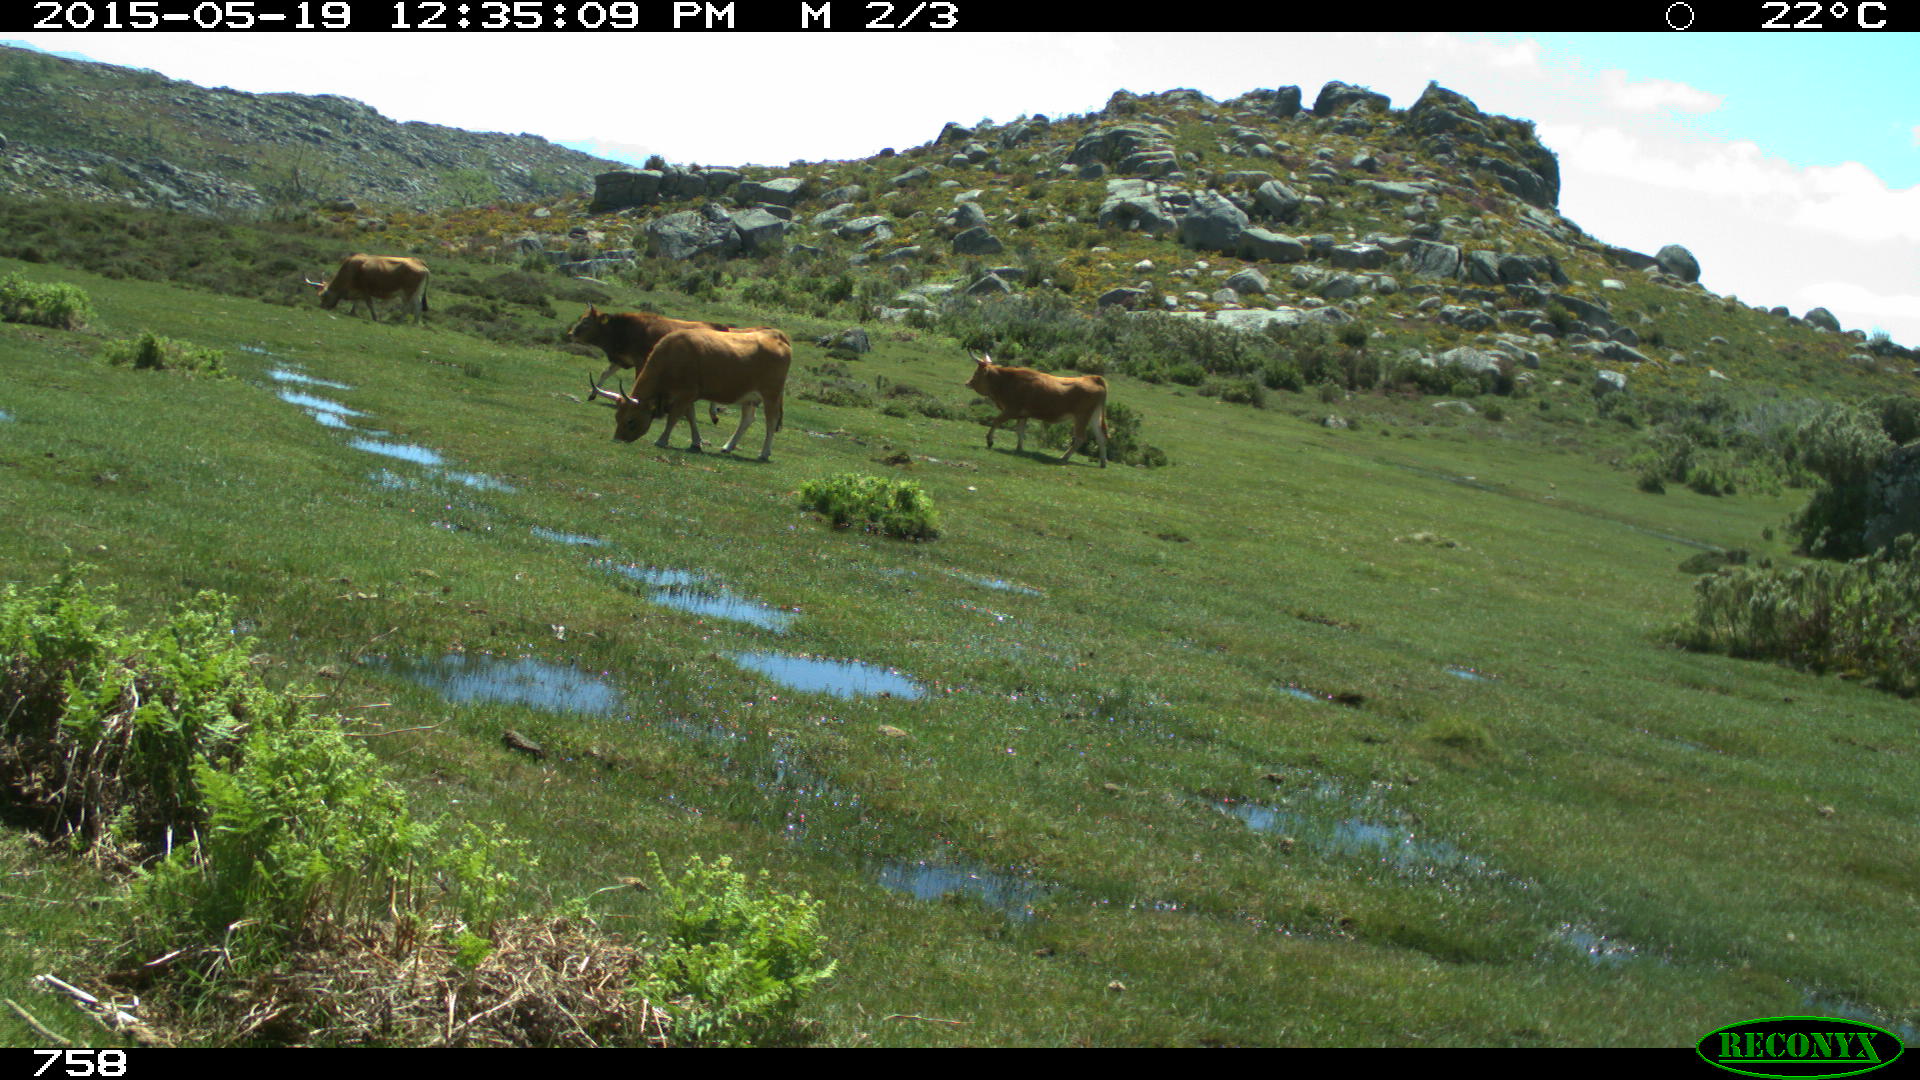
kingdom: Animalia
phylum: Chordata
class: Mammalia
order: Artiodactyla
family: Bovidae
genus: Bos
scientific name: Bos taurus
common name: Domesticated cattle
